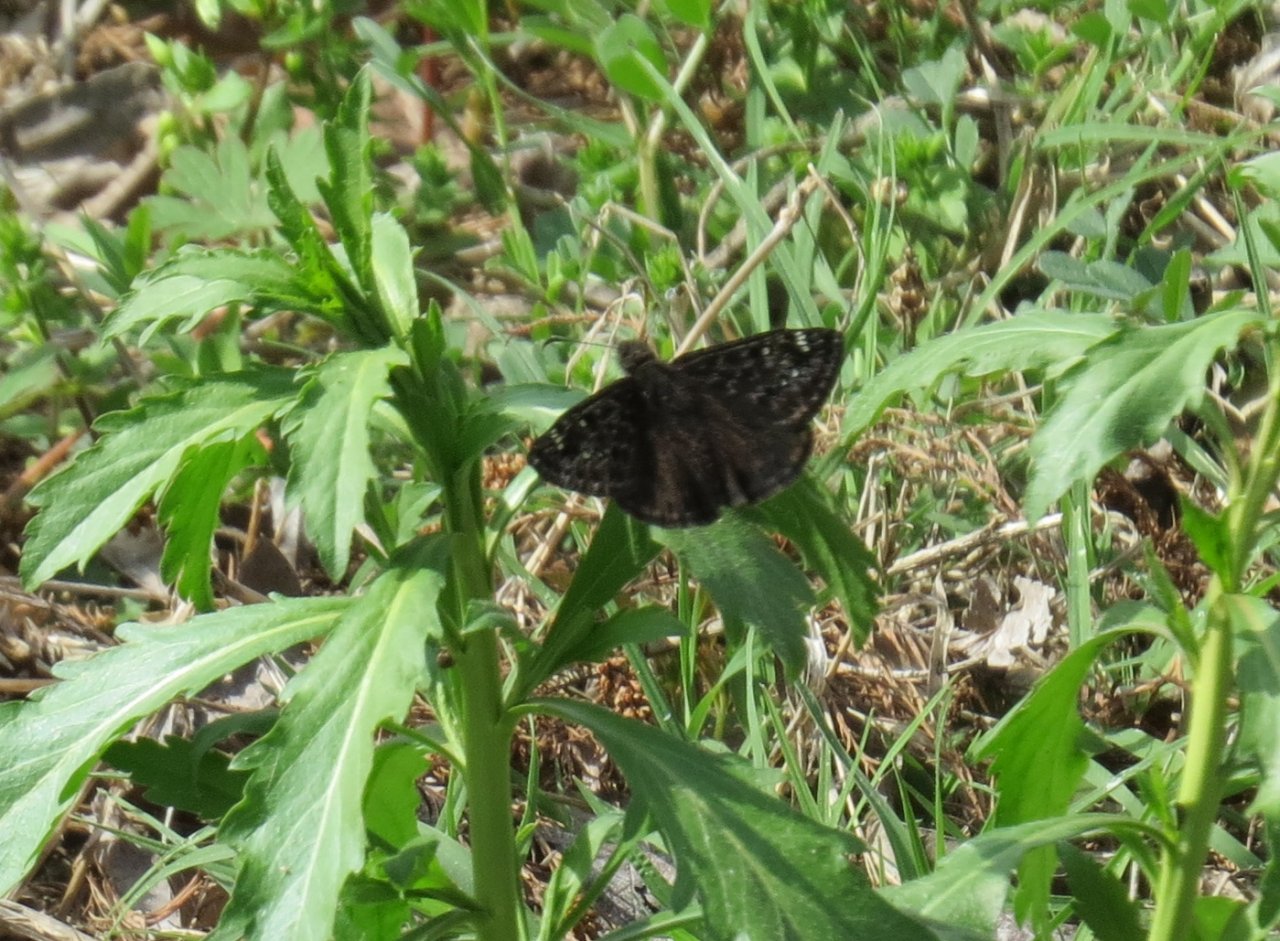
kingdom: Animalia
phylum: Arthropoda
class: Insecta
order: Lepidoptera
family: Hesperiidae
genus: Gesta
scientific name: Gesta
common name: Juvenal's Duskywing
